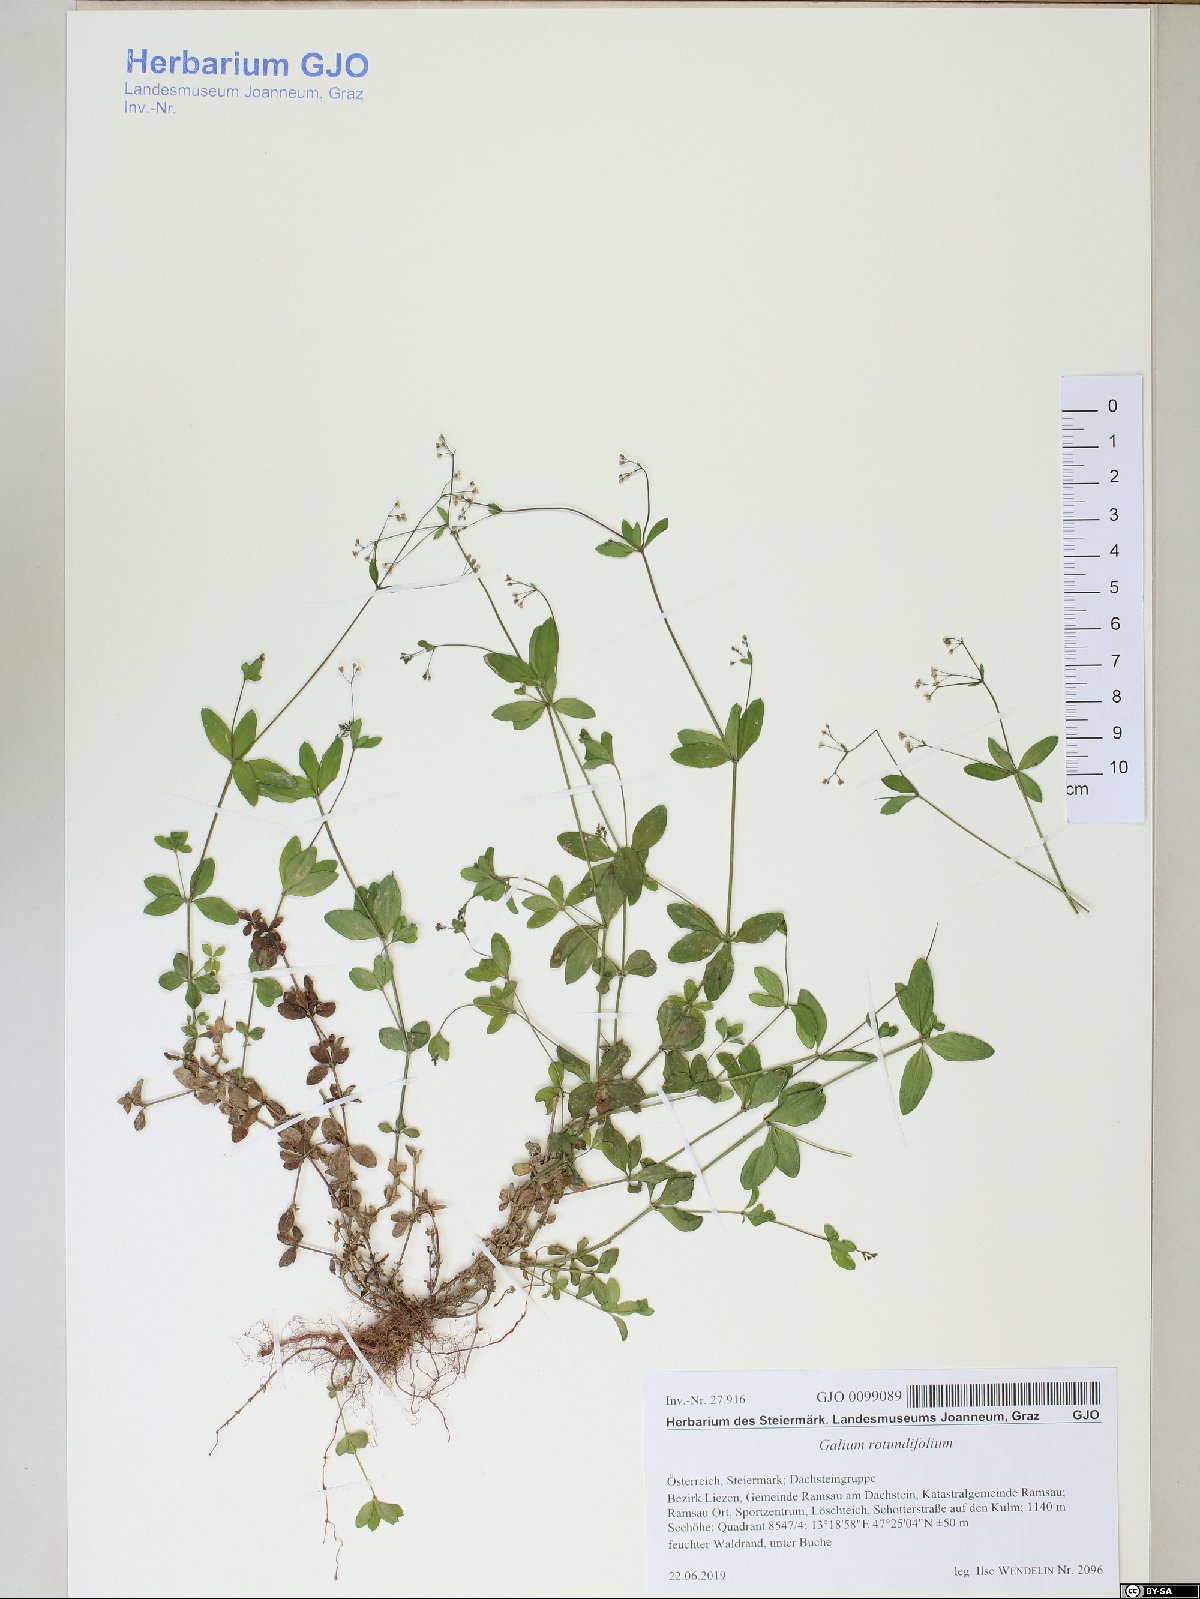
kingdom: Plantae
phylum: Tracheophyta
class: Magnoliopsida
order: Gentianales
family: Rubiaceae
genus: Galium
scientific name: Galium rotundifolium
